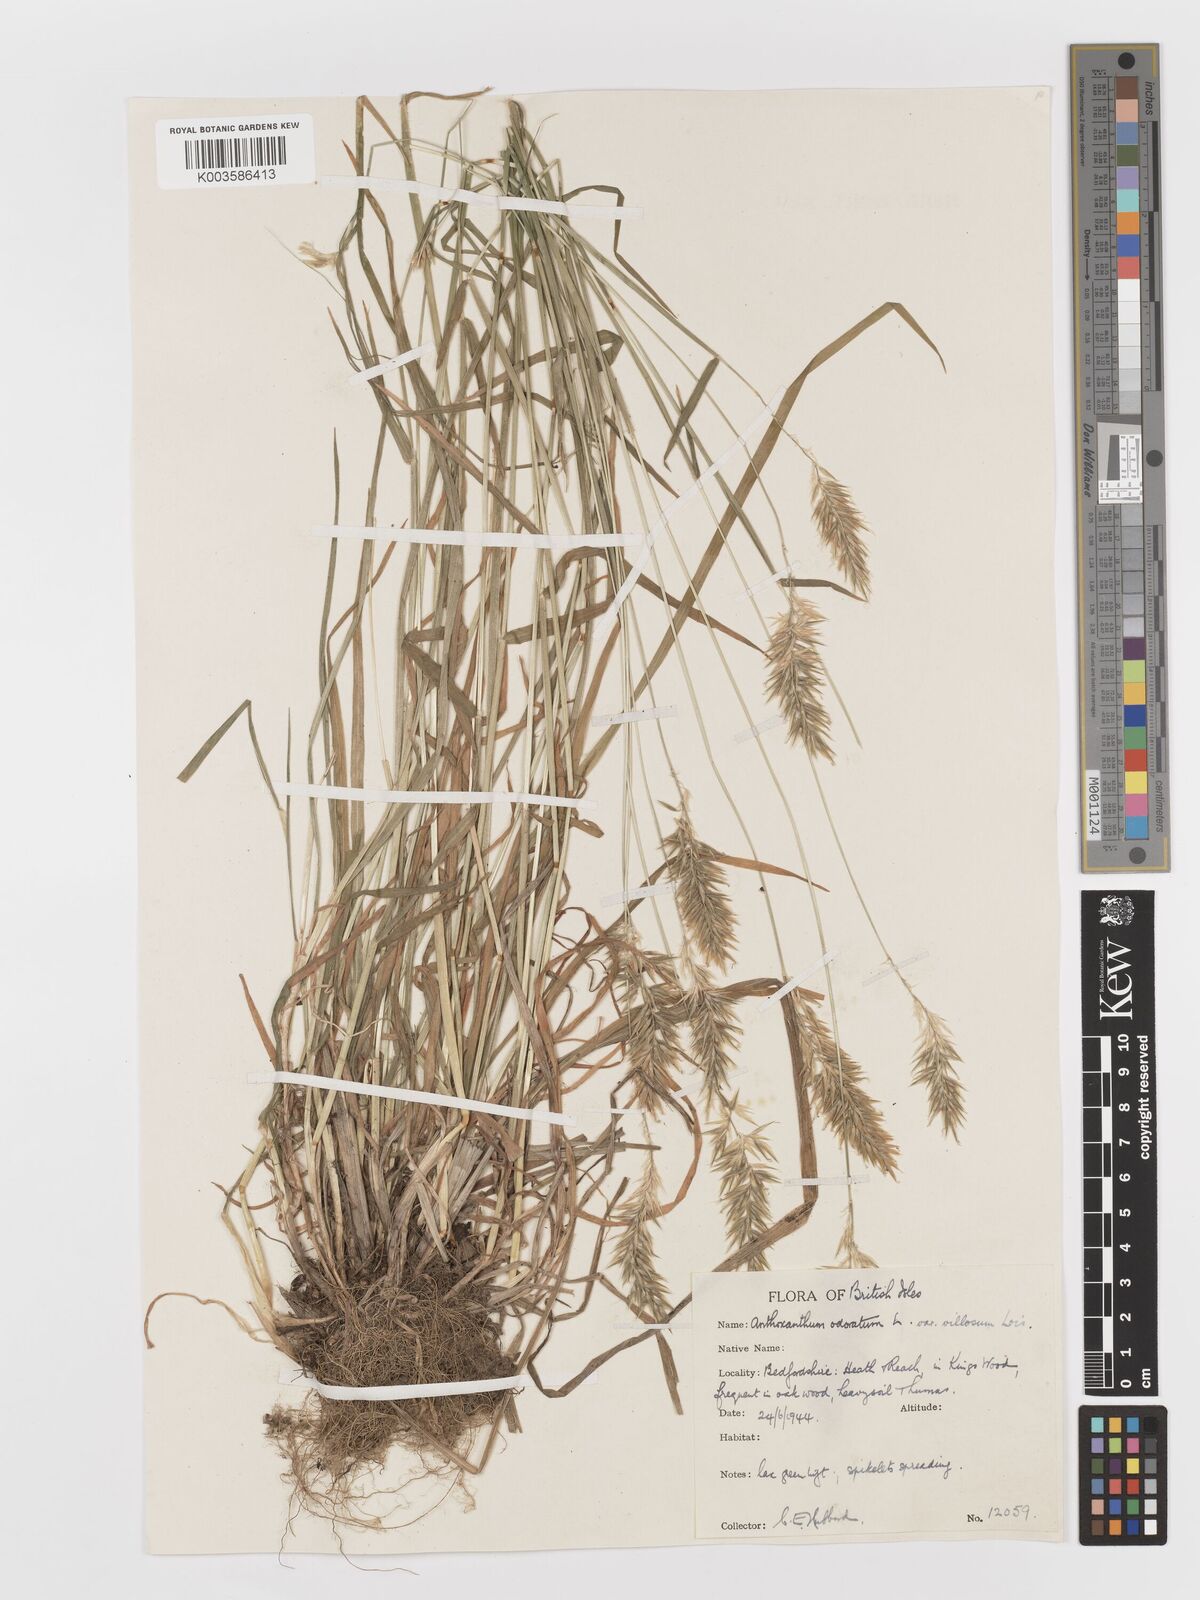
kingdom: Plantae
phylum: Tracheophyta
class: Liliopsida
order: Poales
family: Poaceae
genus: Anthoxanthum
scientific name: Anthoxanthum odoratum
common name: Sweet vernalgrass
